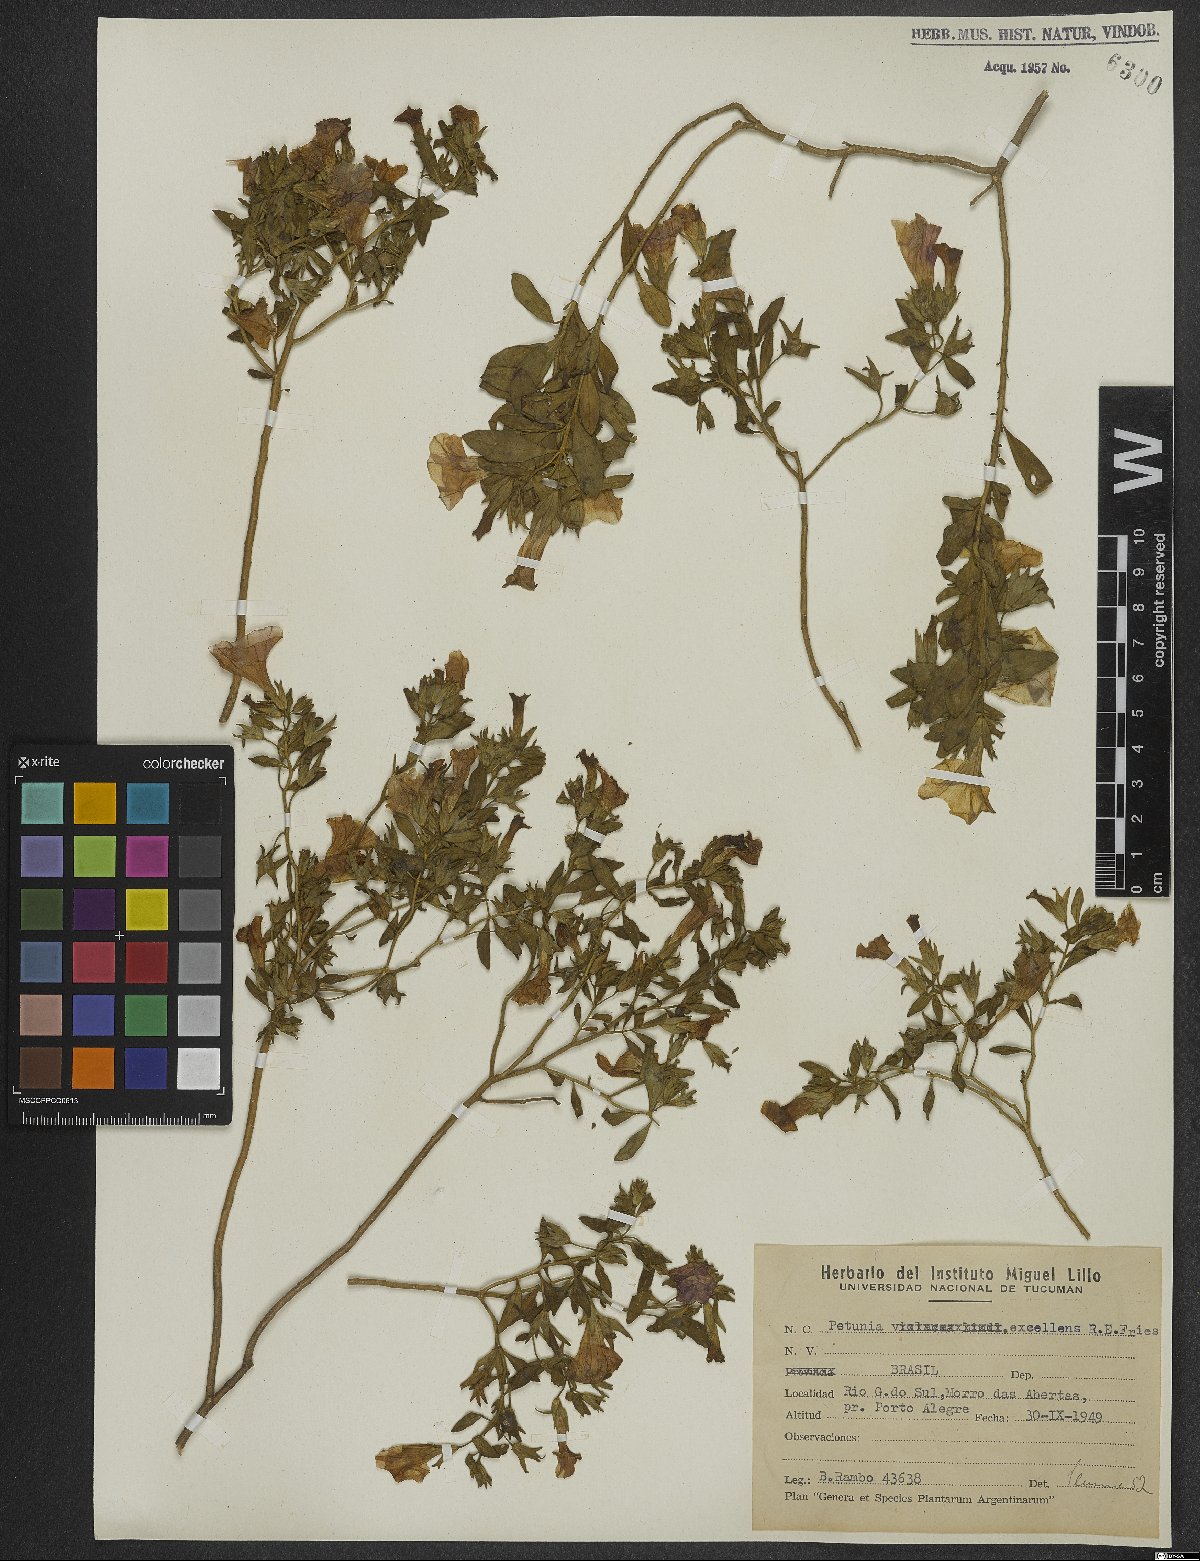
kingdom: Plantae
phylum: Tracheophyta
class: Magnoliopsida
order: Solanales
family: Solanaceae
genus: Calibrachoa
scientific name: Calibrachoa excellens
